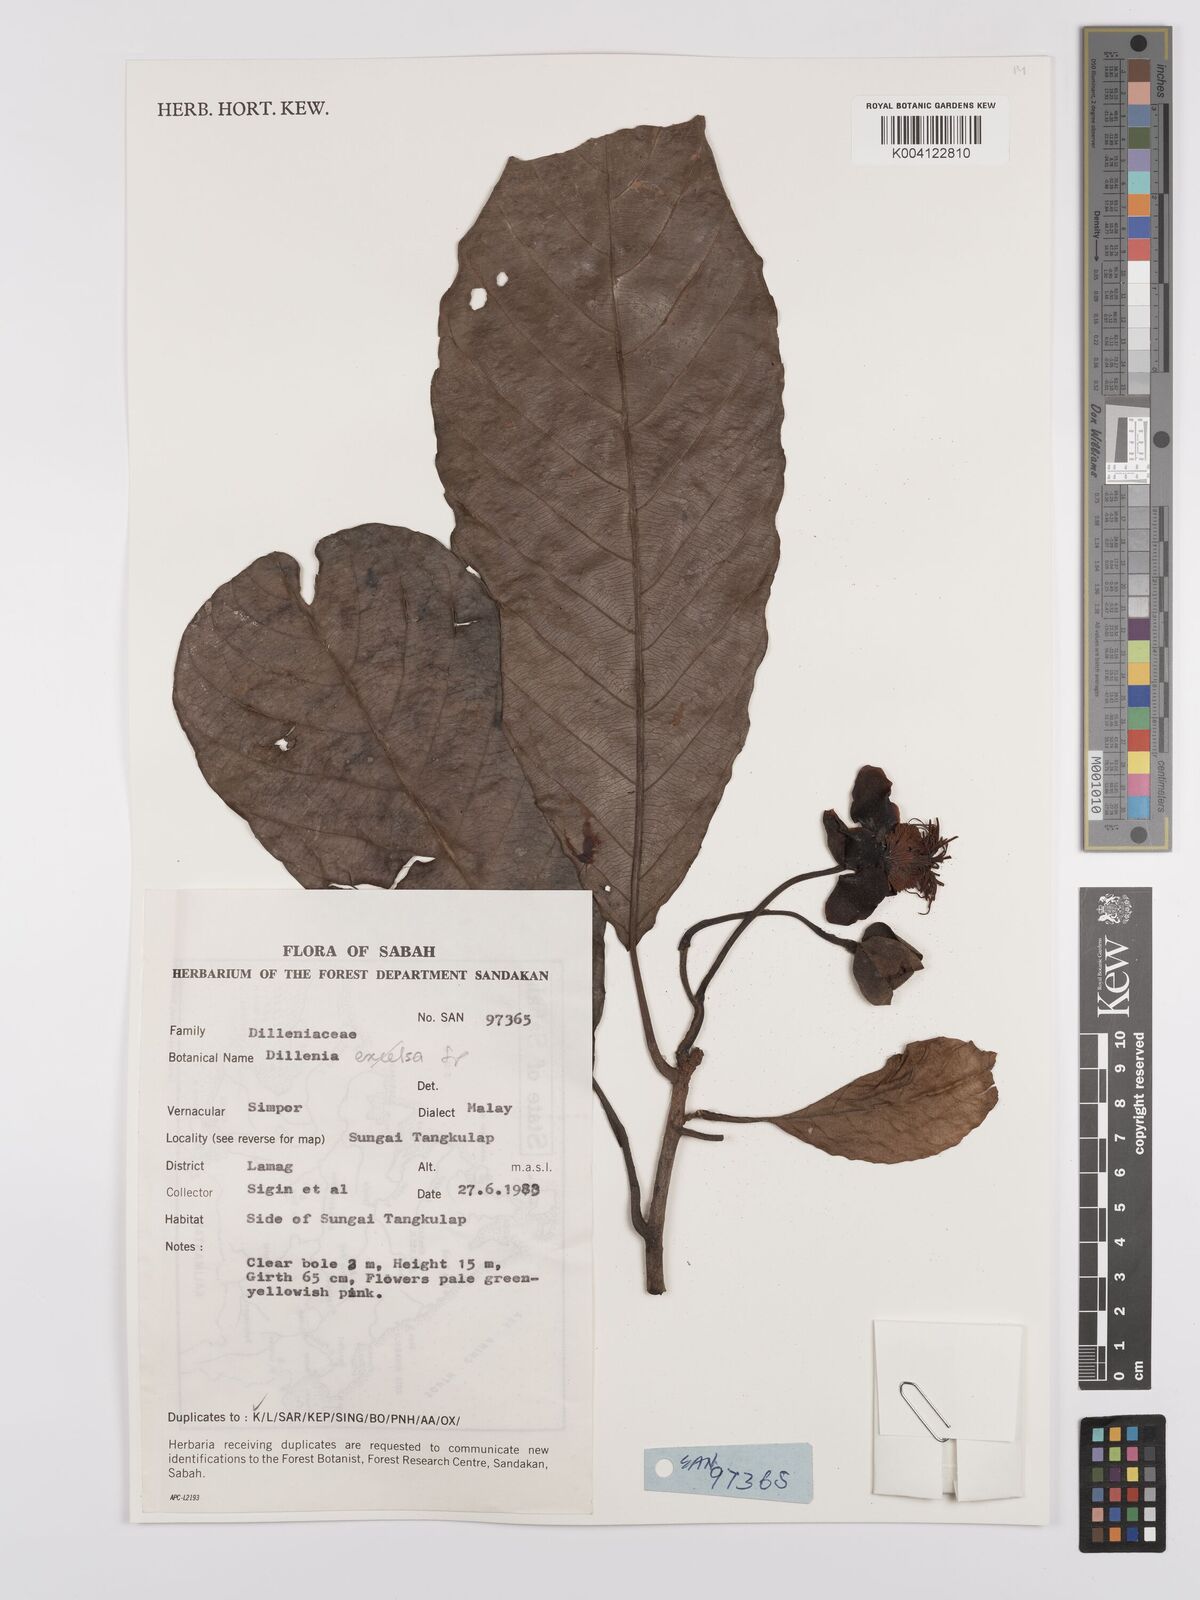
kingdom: Plantae
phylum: Tracheophyta
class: Magnoliopsida
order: Dilleniales
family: Dilleniaceae
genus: Dillenia
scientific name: Dillenia
